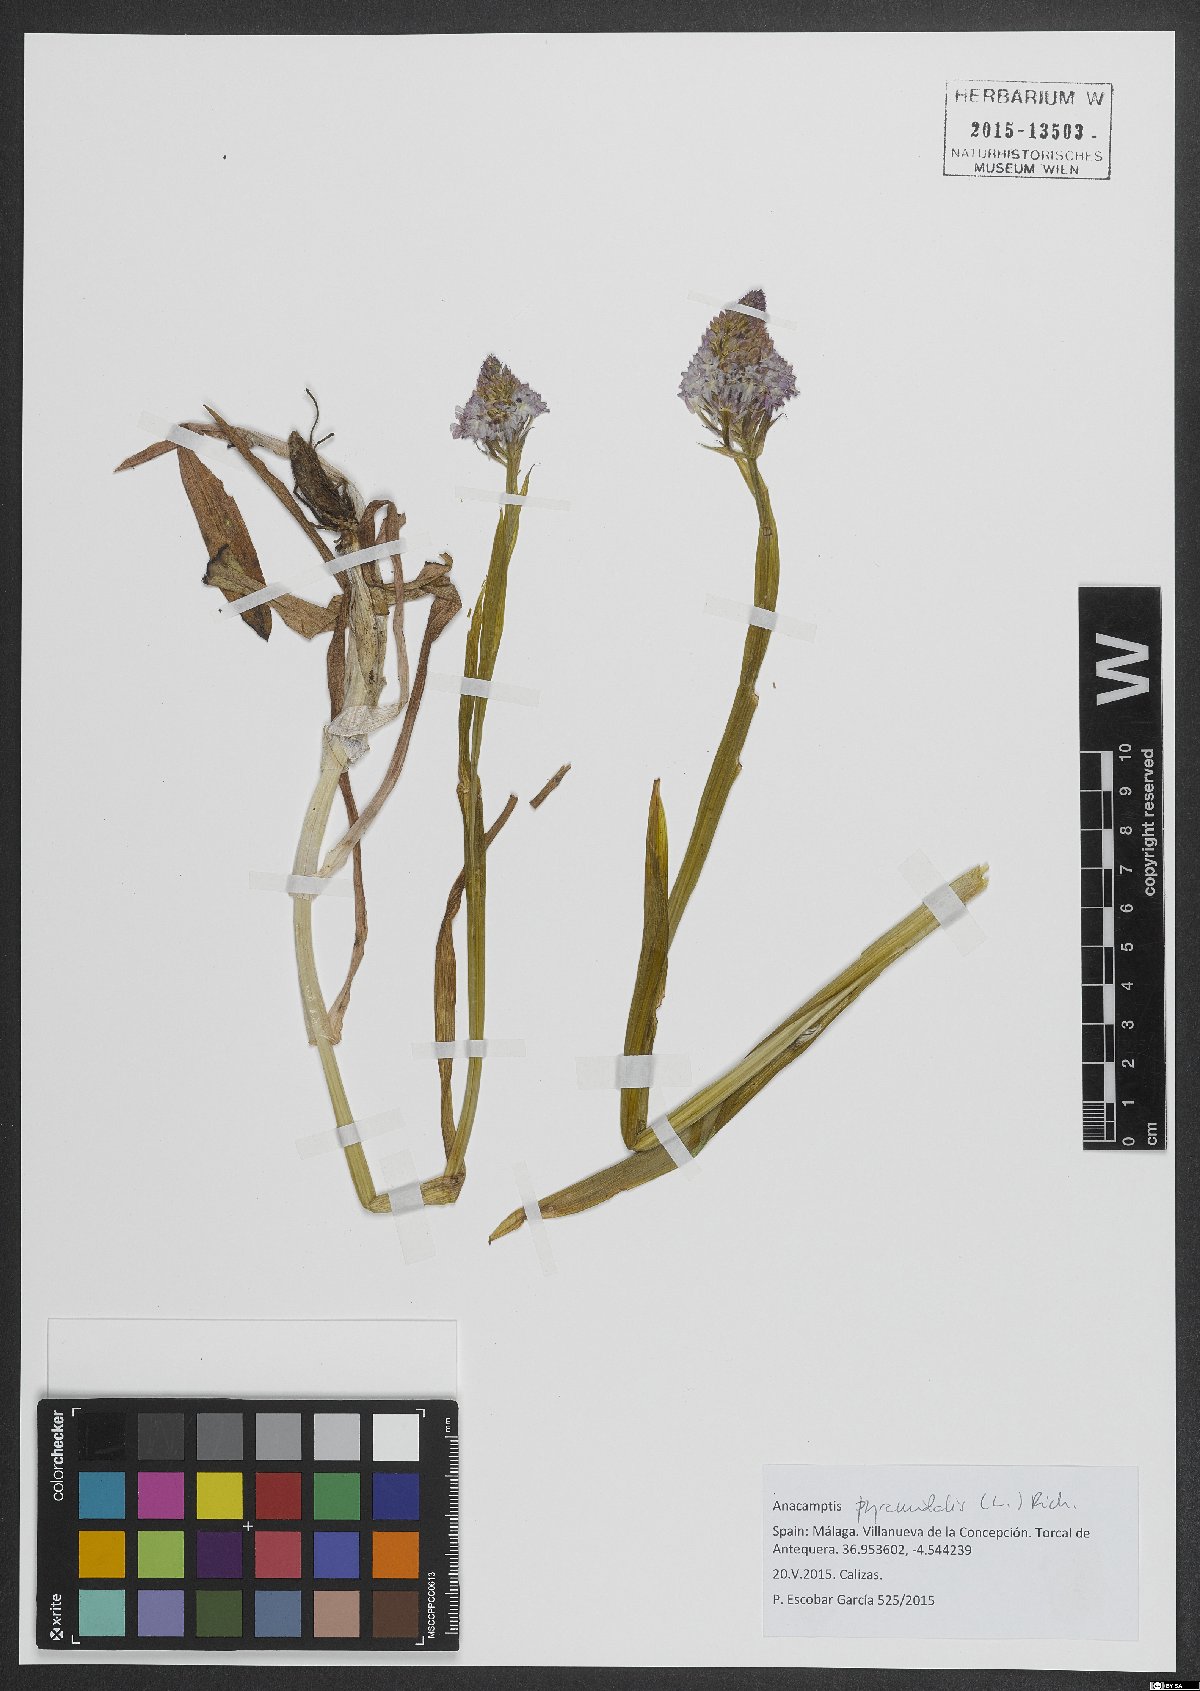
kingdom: Plantae
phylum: Tracheophyta
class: Liliopsida
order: Asparagales
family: Orchidaceae
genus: Anacamptis
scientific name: Anacamptis pyramidalis
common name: Pyramidal orchid
